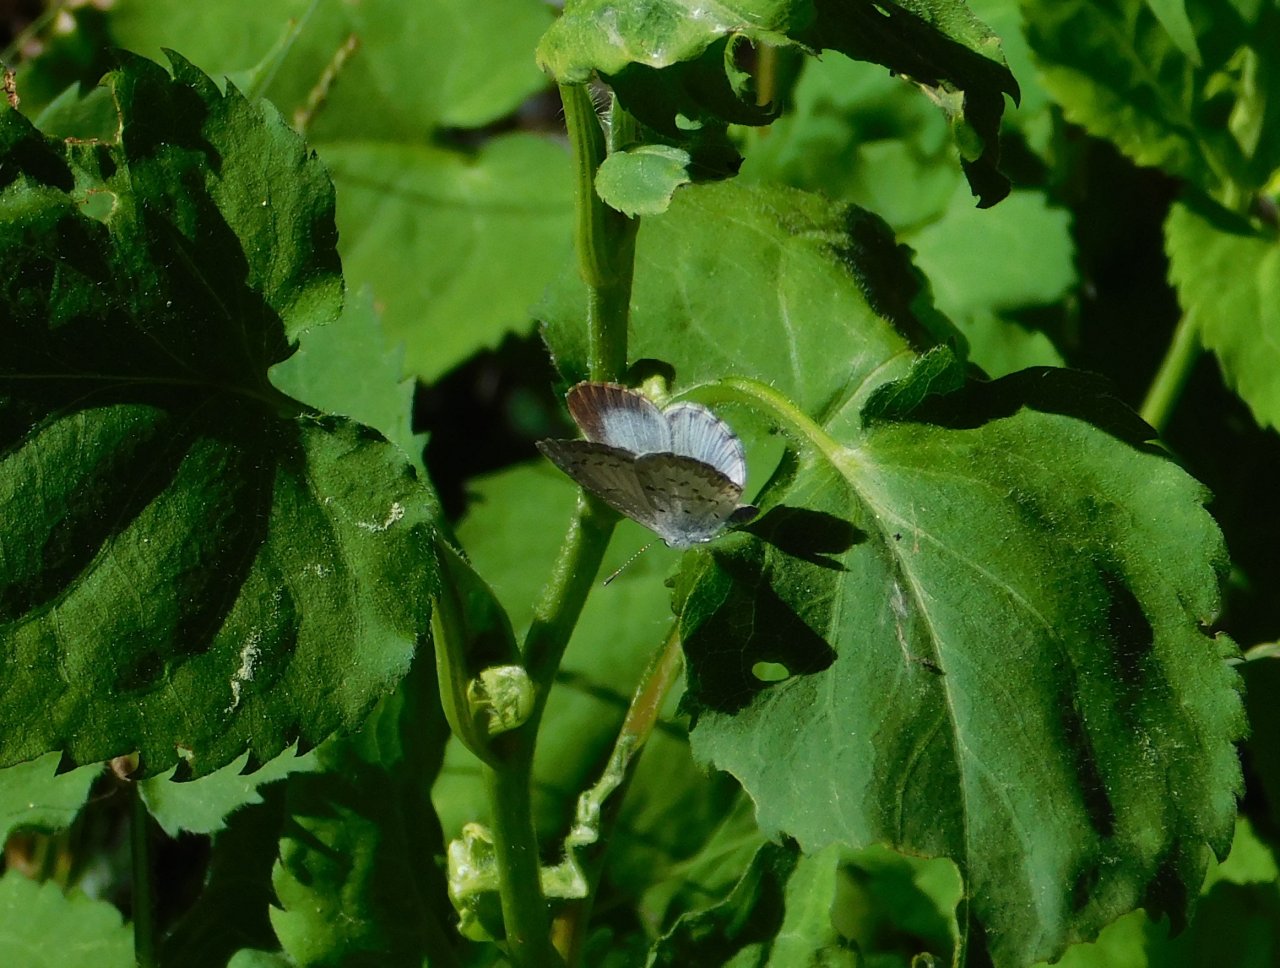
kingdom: Animalia
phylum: Arthropoda
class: Insecta
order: Lepidoptera
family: Lycaenidae
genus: Celastrina
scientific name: Celastrina lucia
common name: Northern Spring Azure
